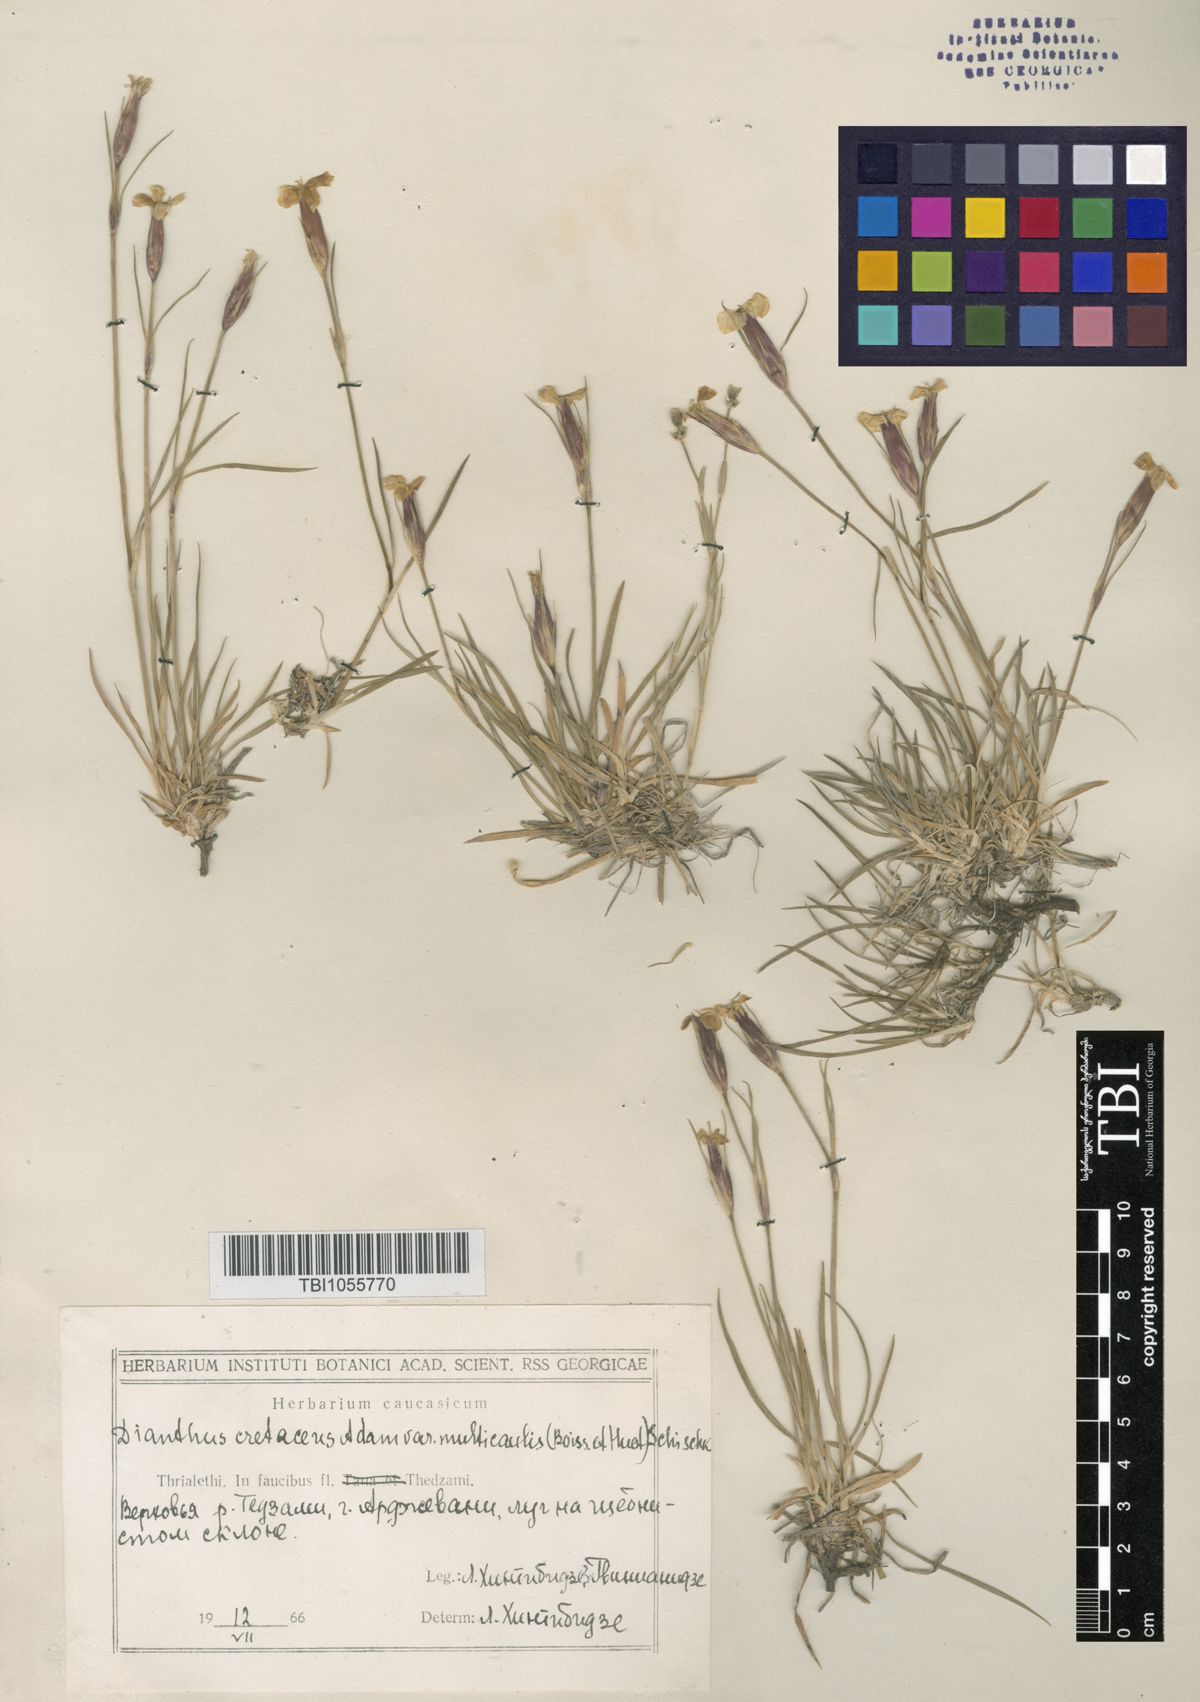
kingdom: Plantae
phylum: Tracheophyta
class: Magnoliopsida
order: Caryophyllales
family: Caryophyllaceae
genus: Dianthus
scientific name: Dianthus cretaceus
